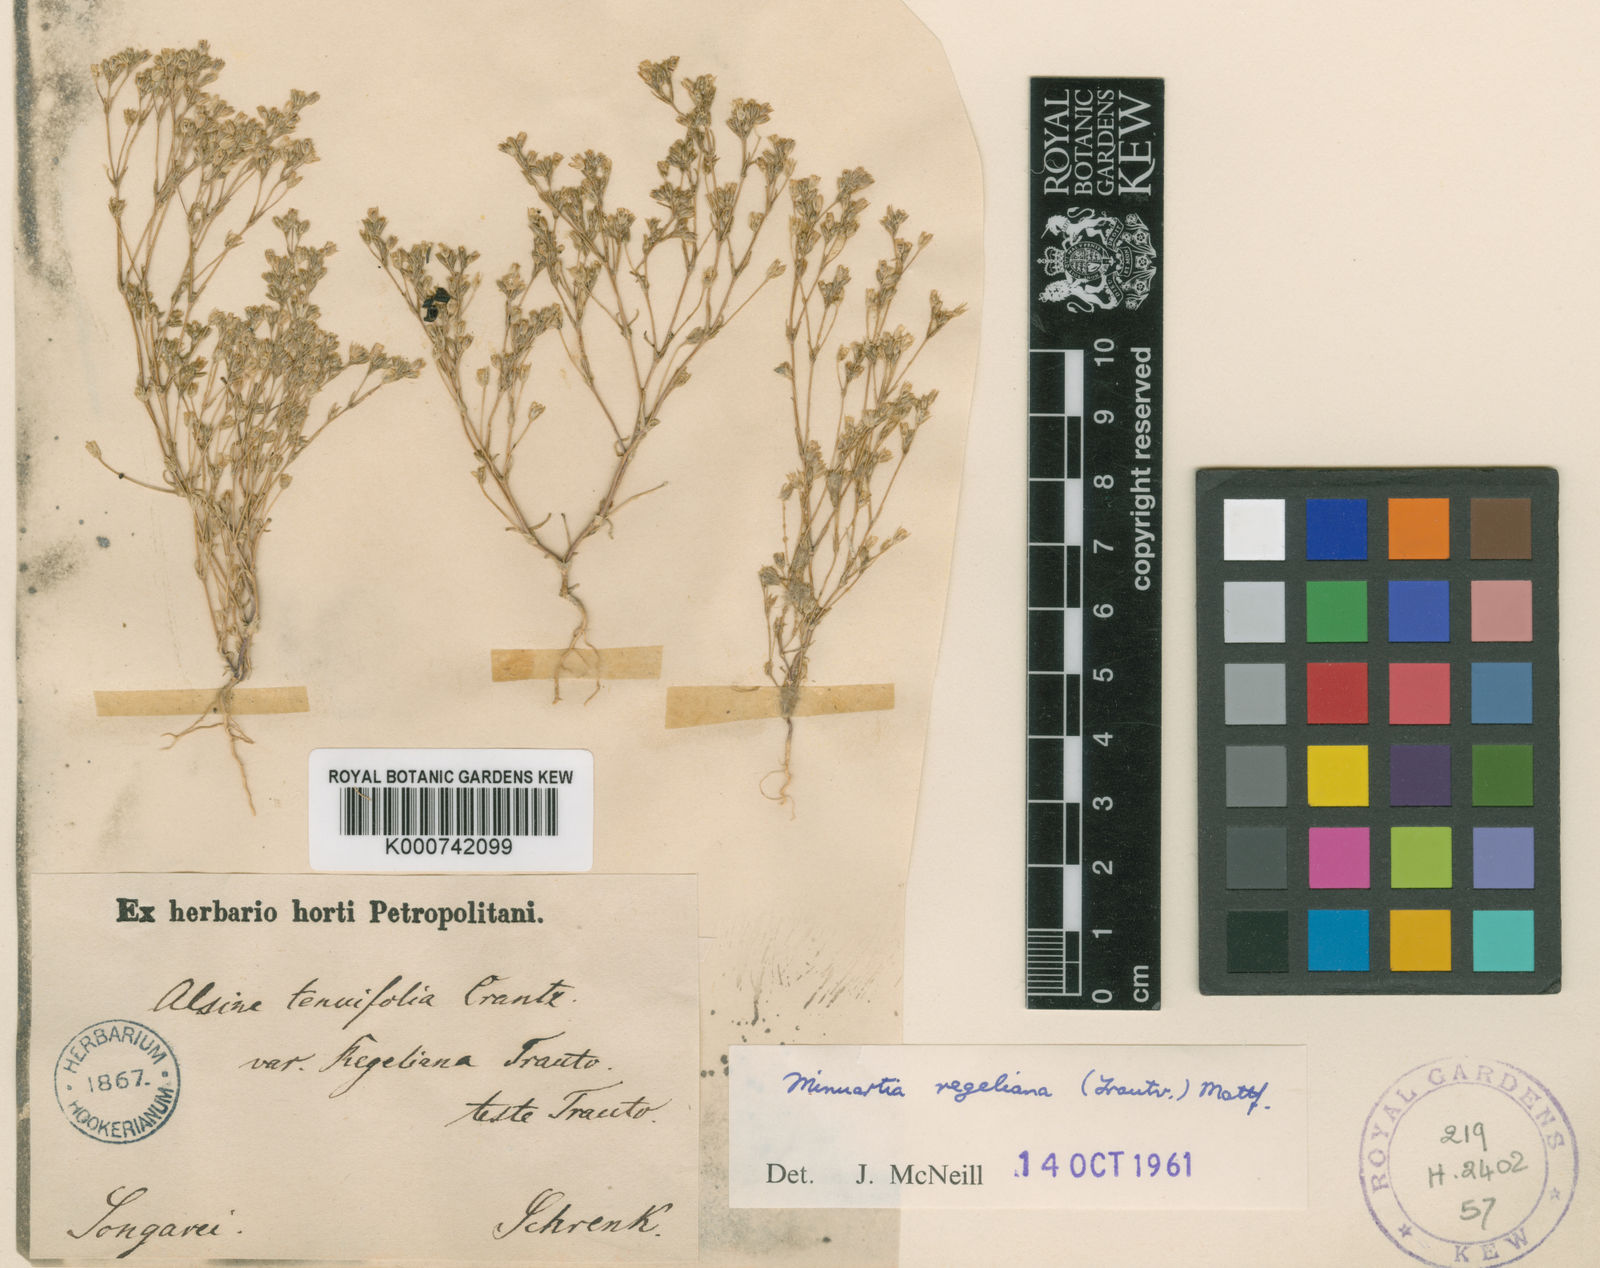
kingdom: Plantae
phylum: Tracheophyta
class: Magnoliopsida
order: Caryophyllales
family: Caryophyllaceae
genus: Sabulina
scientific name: Sabulina regeliana
